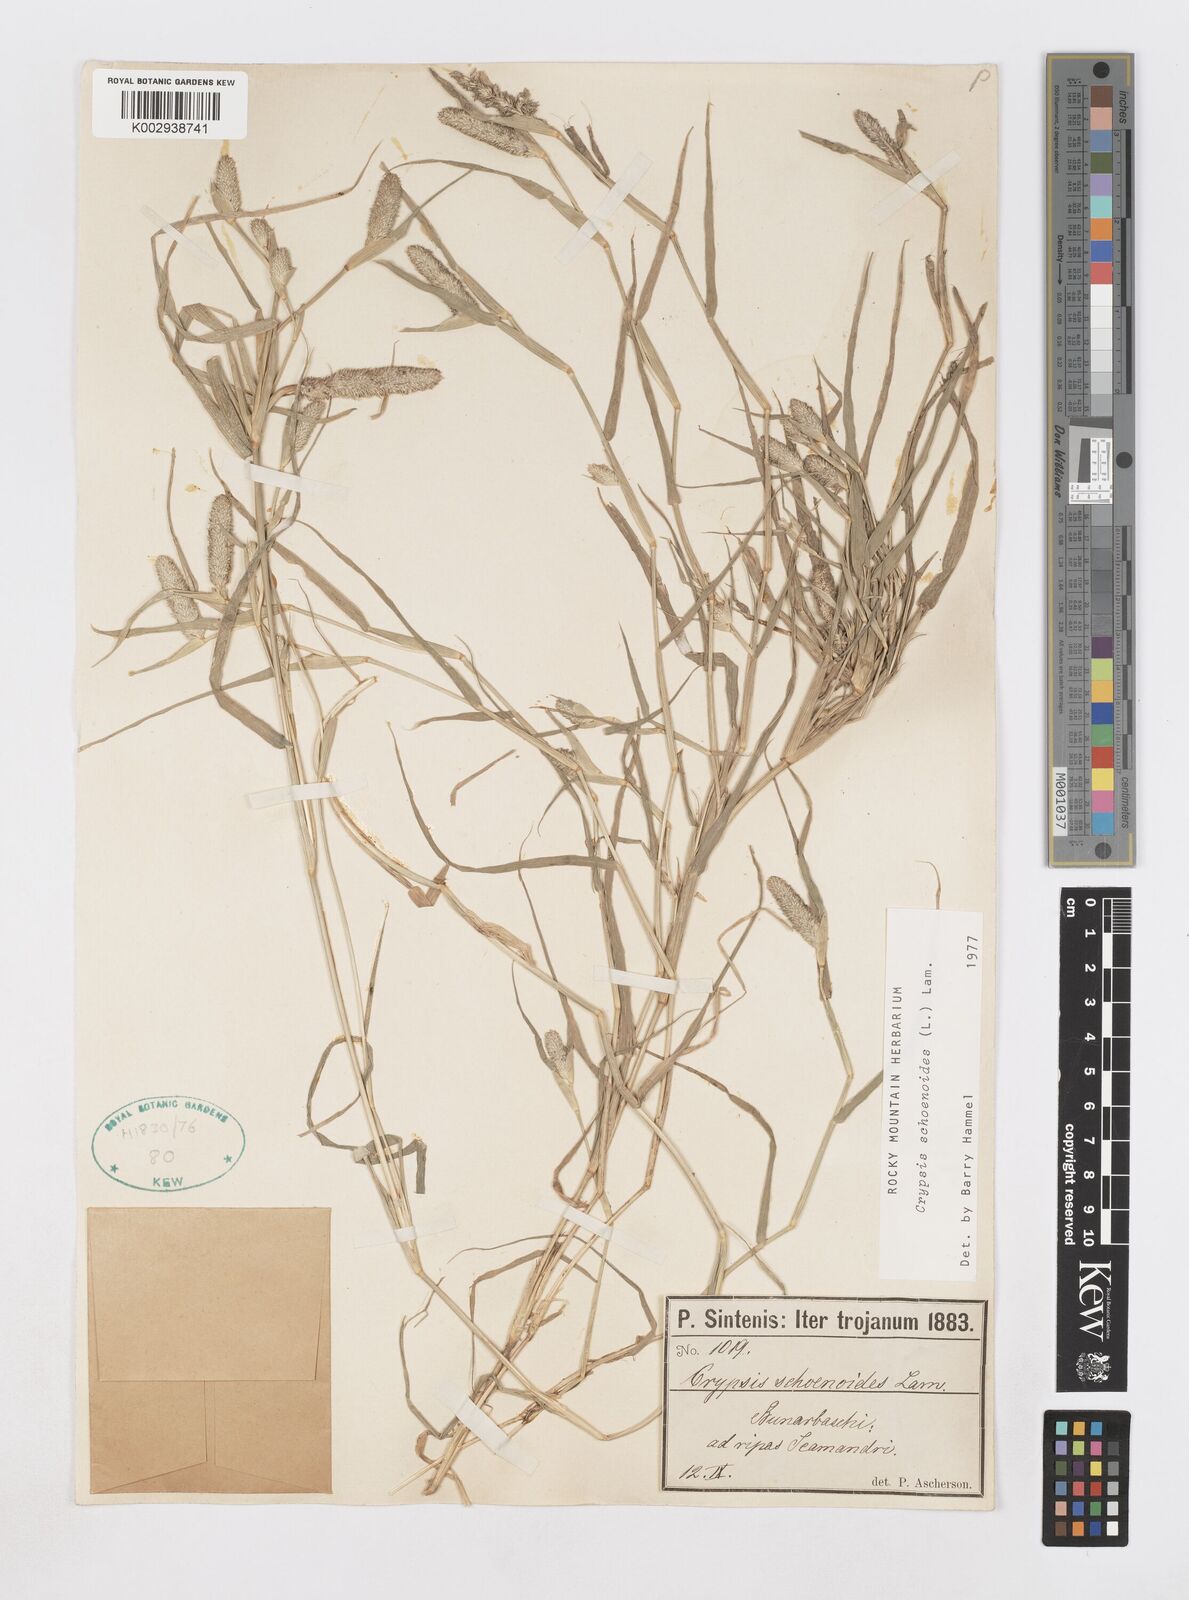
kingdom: Plantae
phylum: Tracheophyta
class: Liliopsida
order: Poales
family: Poaceae
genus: Sporobolus
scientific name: Sporobolus schoenoides
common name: Rush-like timothy
